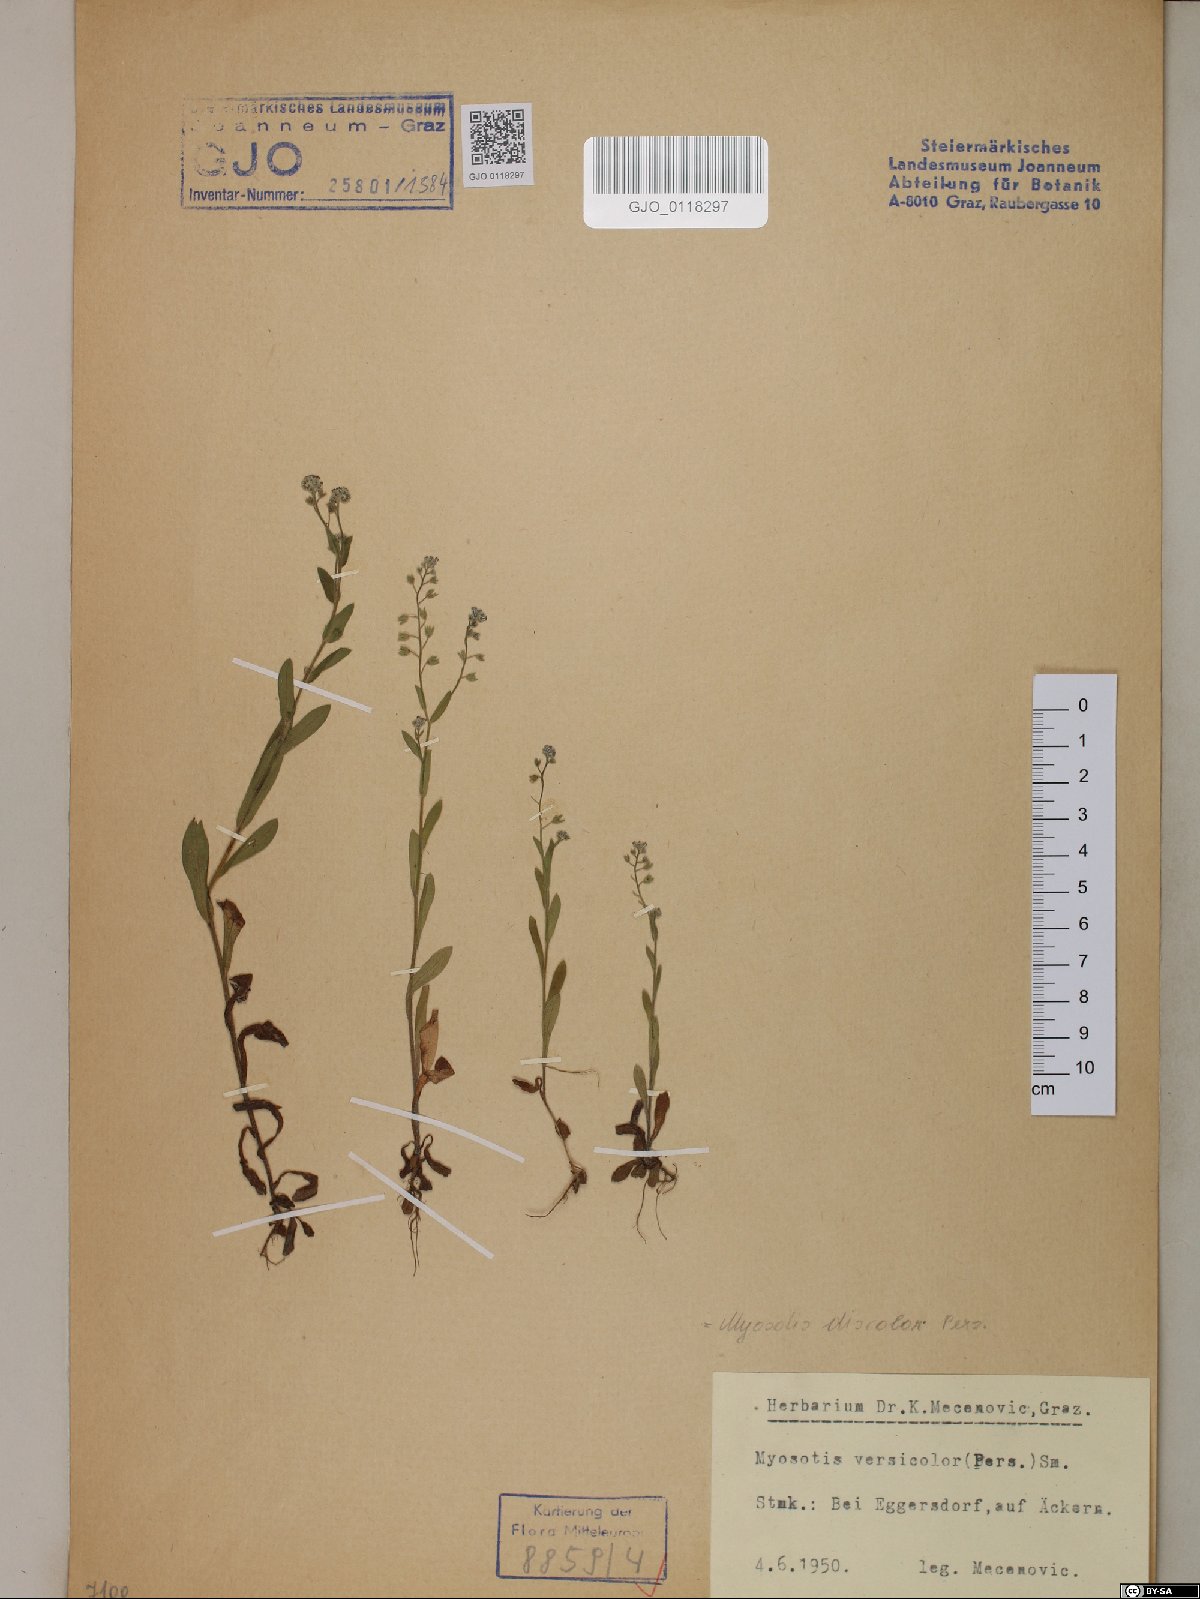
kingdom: Plantae
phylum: Tracheophyta
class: Magnoliopsida
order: Boraginales
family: Boraginaceae
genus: Myosotis
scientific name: Myosotis discolor
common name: Changing forget-me-not
